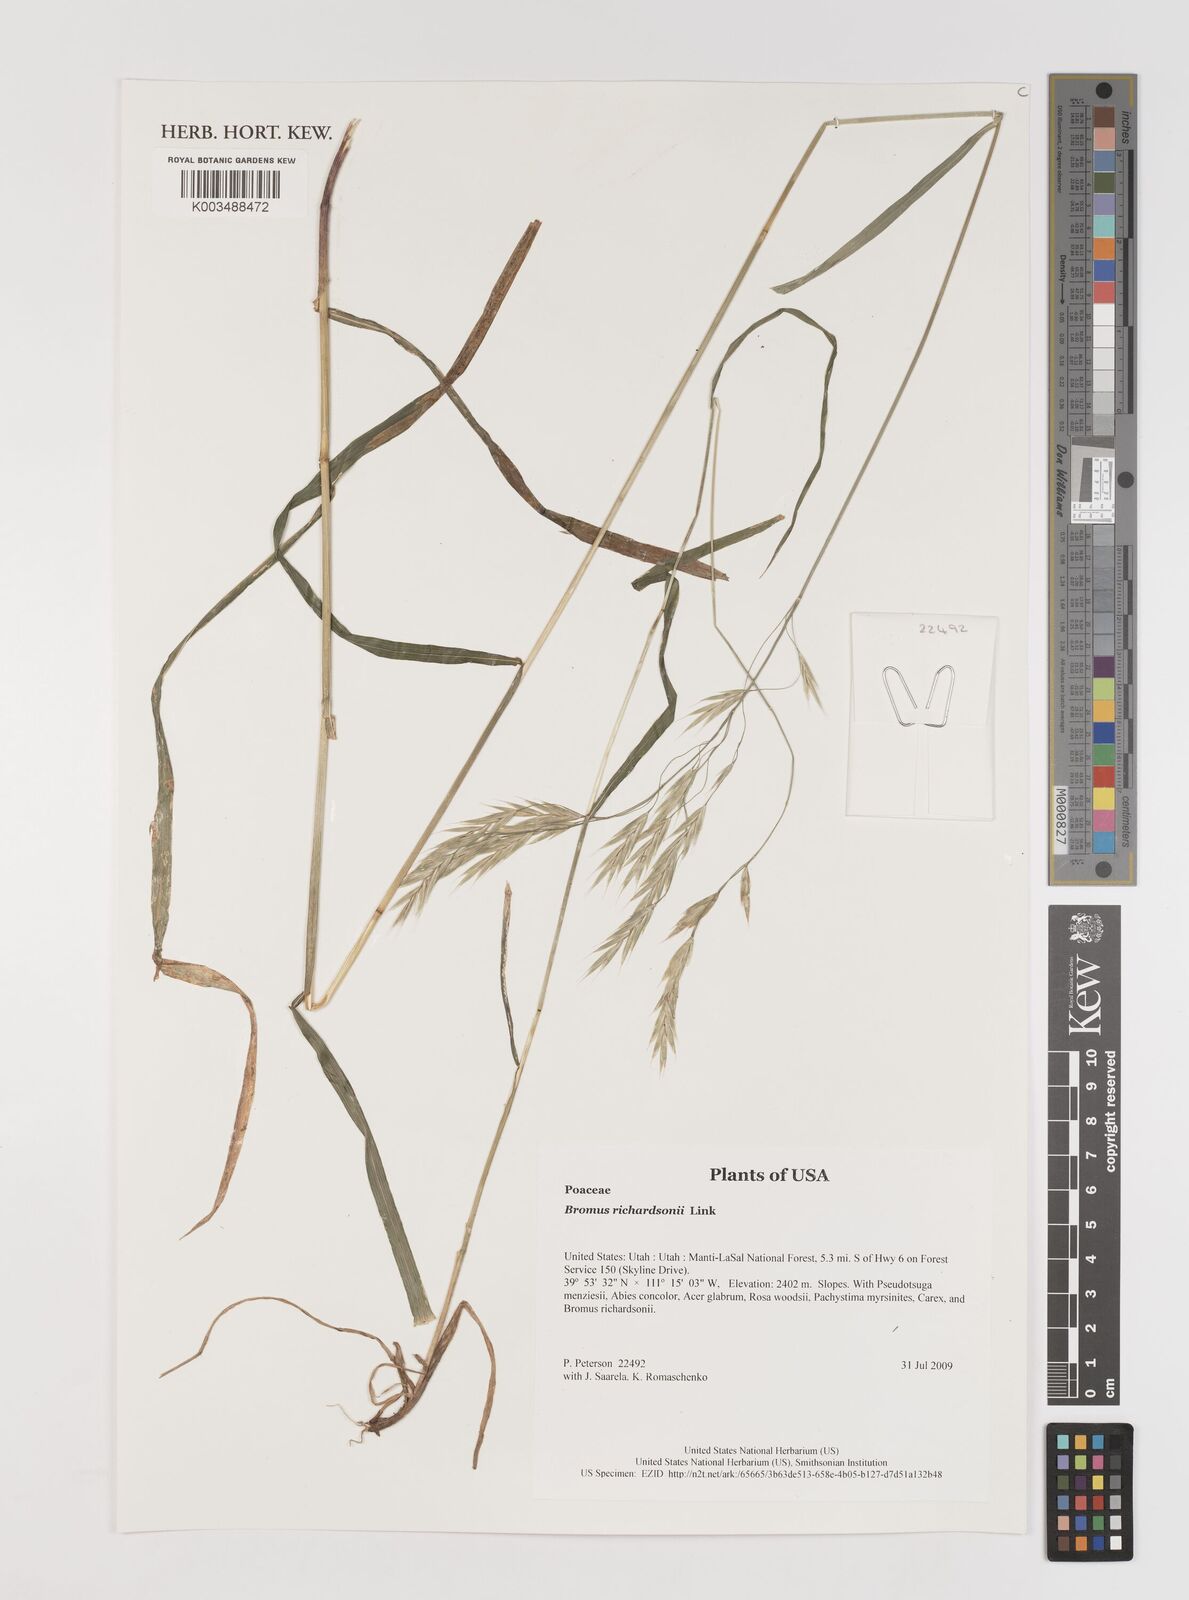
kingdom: Plantae
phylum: Tracheophyta
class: Liliopsida
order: Poales
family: Poaceae
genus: Bromus
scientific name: Bromus richardsonii
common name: Richardson's brome
